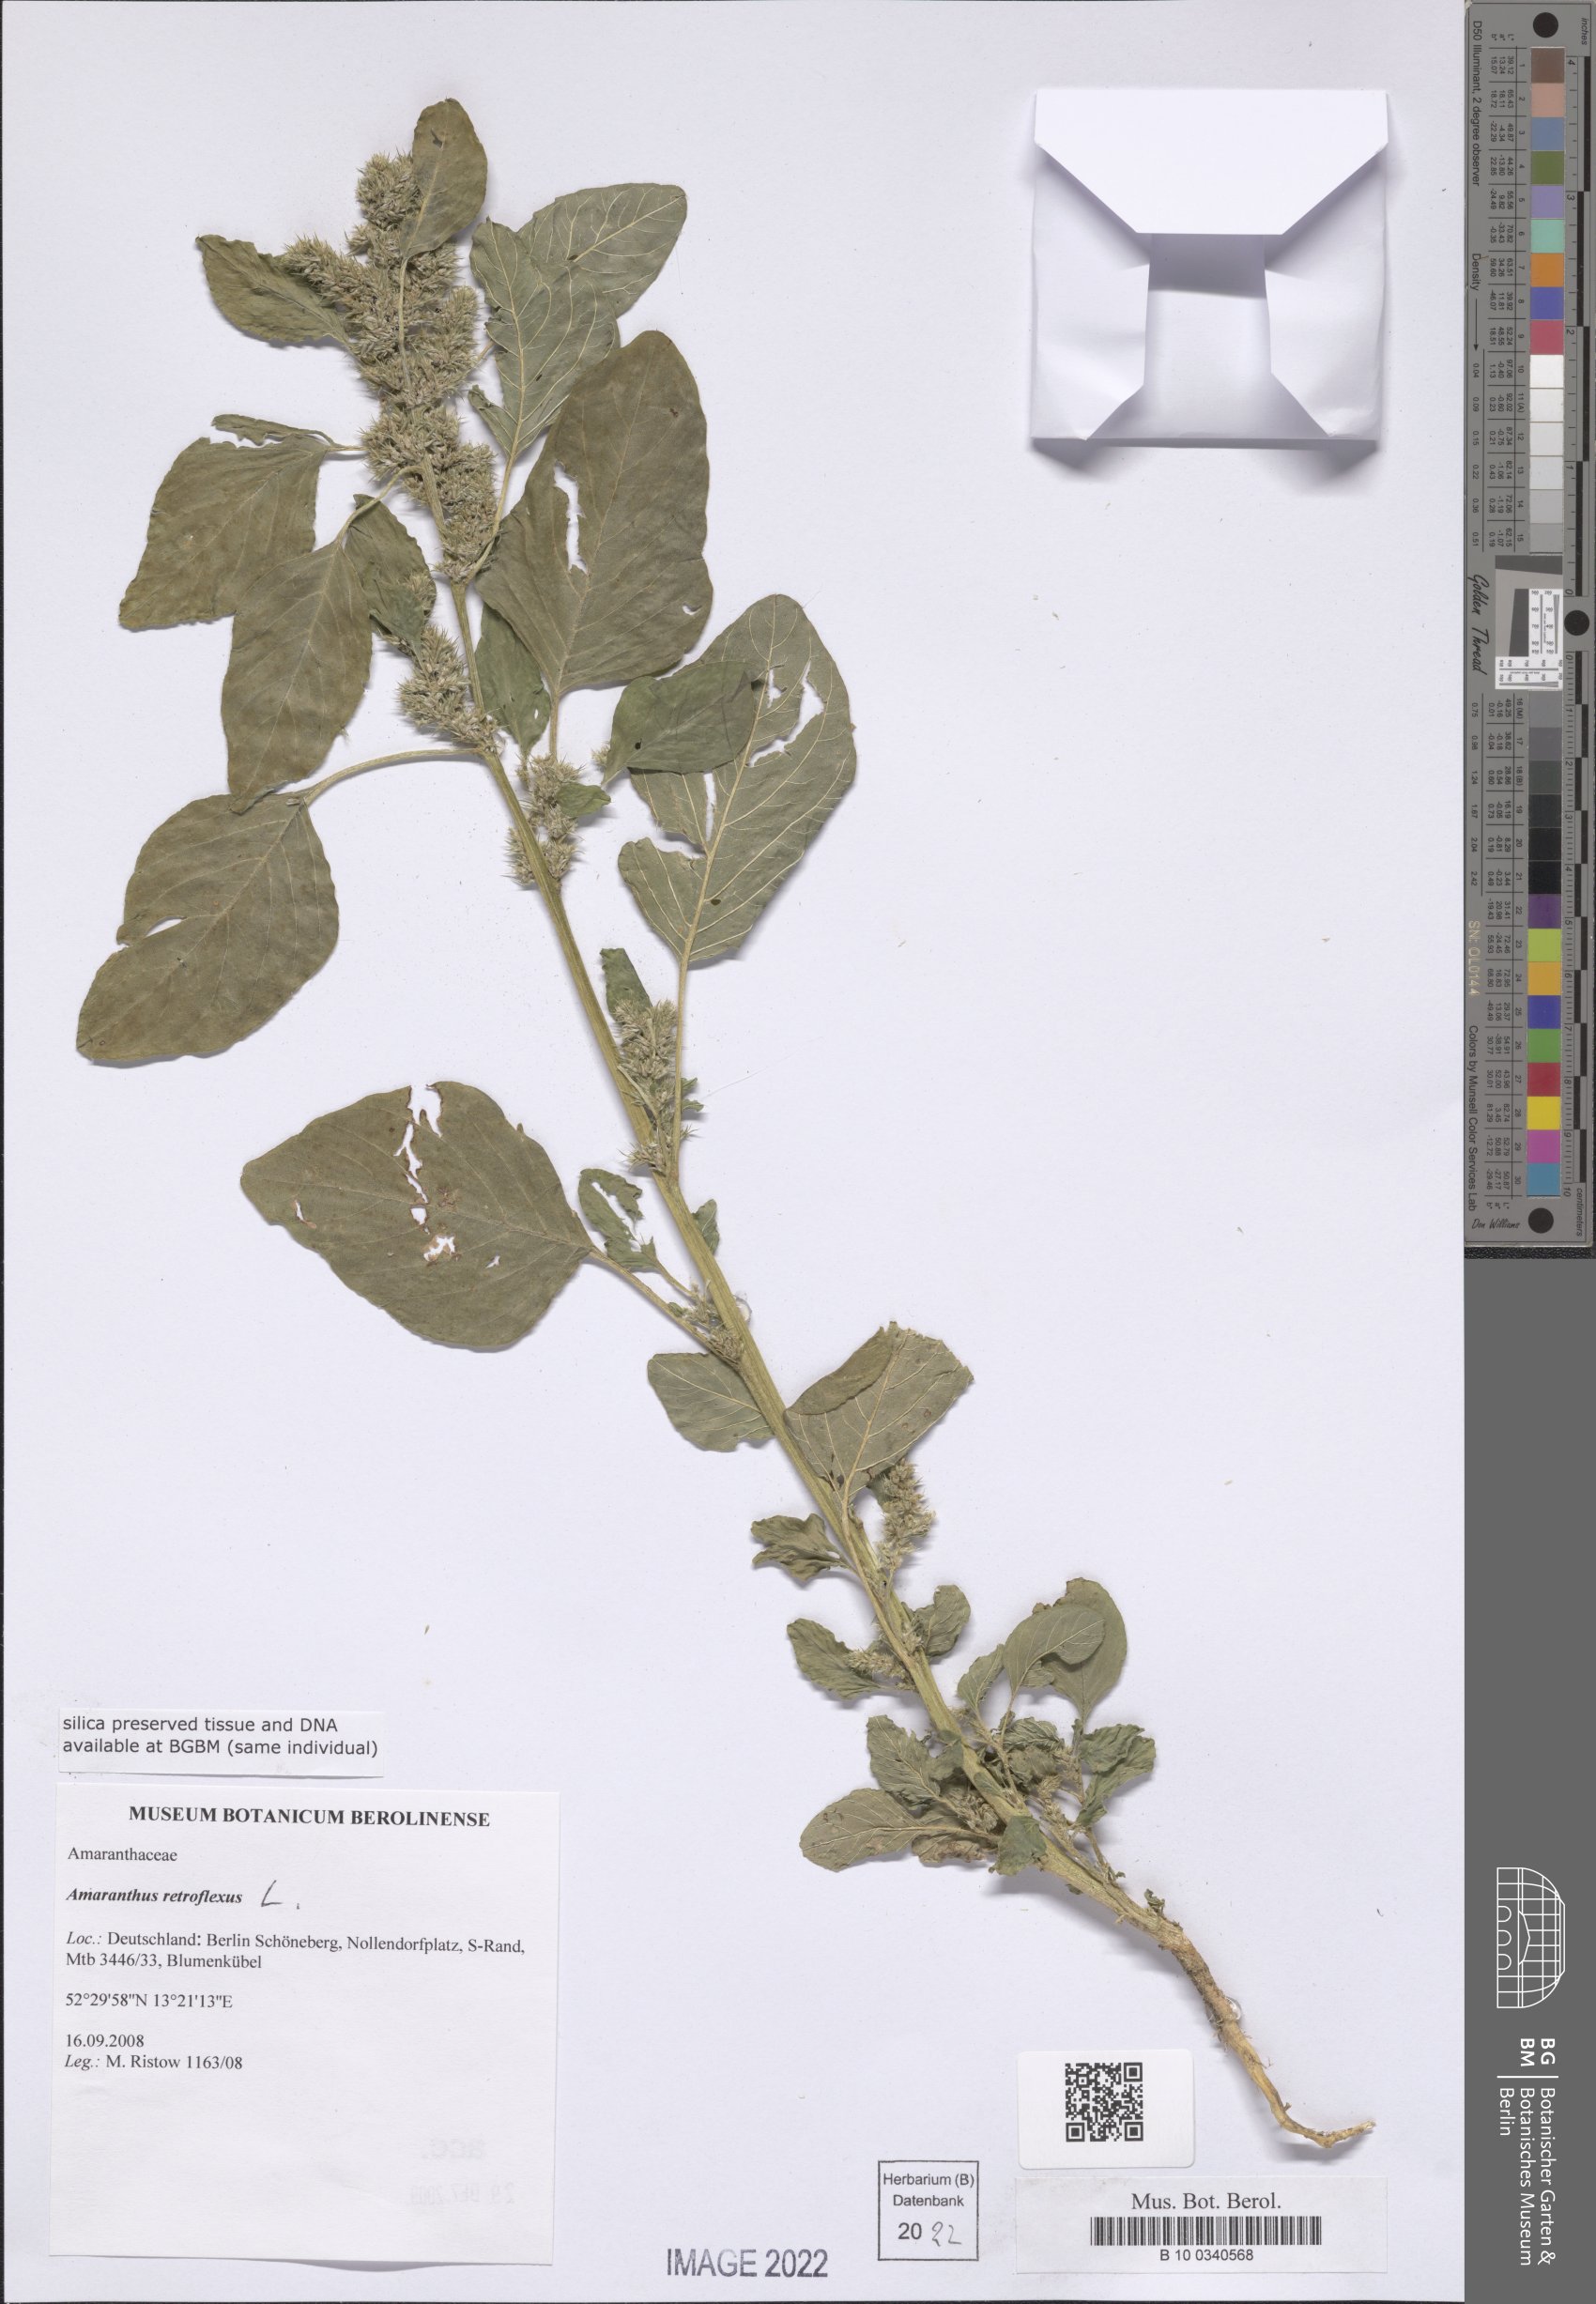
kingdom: Plantae
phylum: Tracheophyta
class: Magnoliopsida
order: Caryophyllales
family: Amaranthaceae
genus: Amaranthus
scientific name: Amaranthus retroflexus
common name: Redroot amaranth
